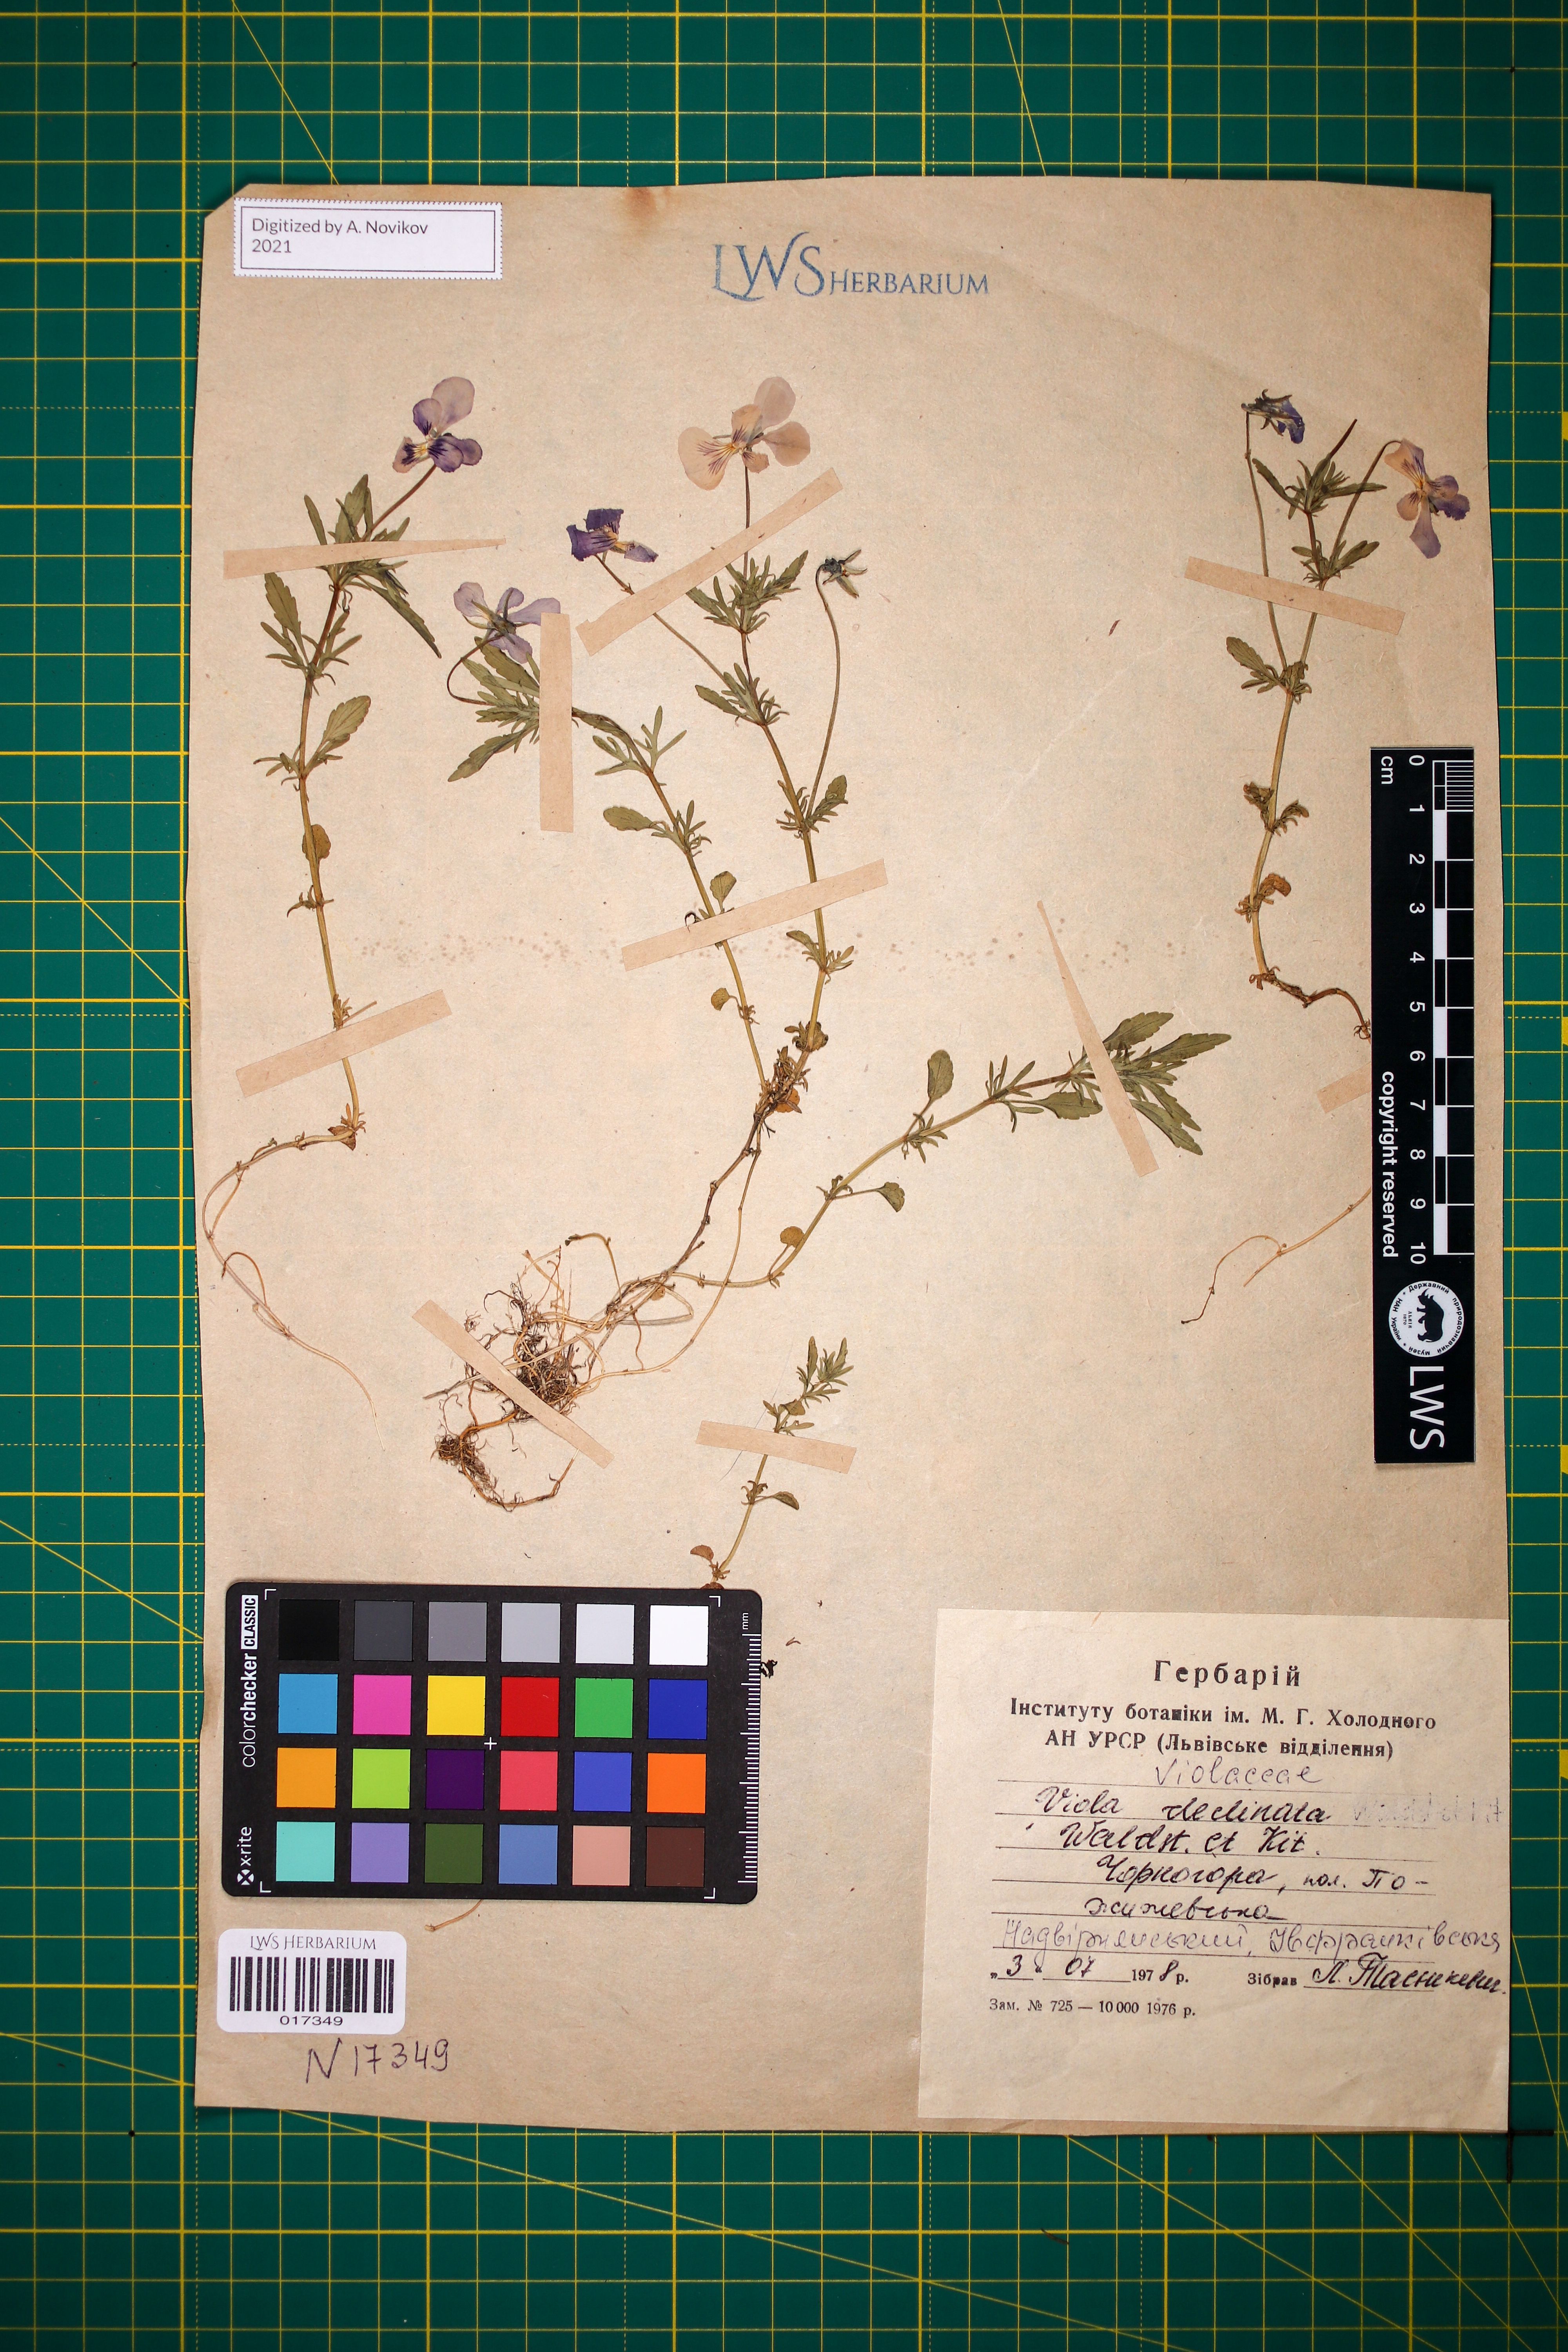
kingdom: Plantae
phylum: Tracheophyta
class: Magnoliopsida
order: Malpighiales
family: Violaceae
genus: Viola
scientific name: Viola declinata
